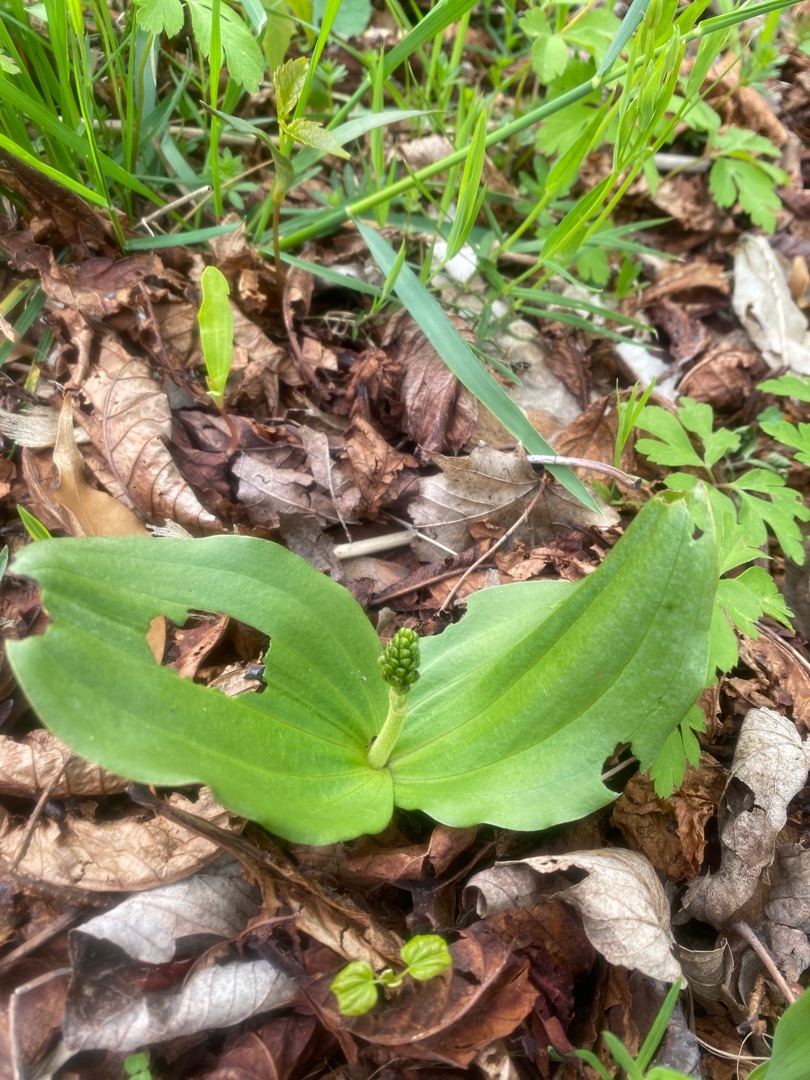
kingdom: Plantae
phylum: Tracheophyta
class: Liliopsida
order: Asparagales
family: Orchidaceae
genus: Neottia
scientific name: Neottia ovata
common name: Ægbladet fliglæbe
